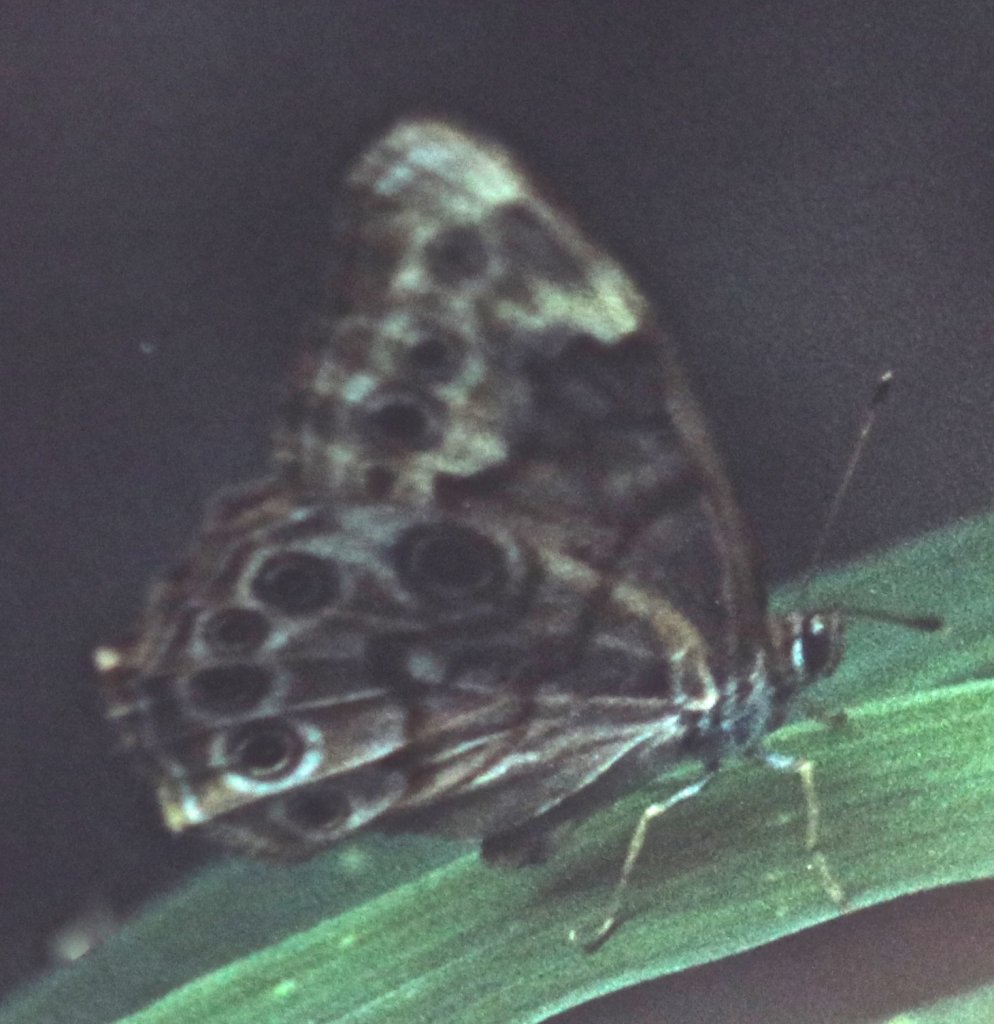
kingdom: Animalia
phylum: Arthropoda
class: Insecta
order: Lepidoptera
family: Nymphalidae
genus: Lethe
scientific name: Lethe creola
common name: Creole Pearly-Eye
